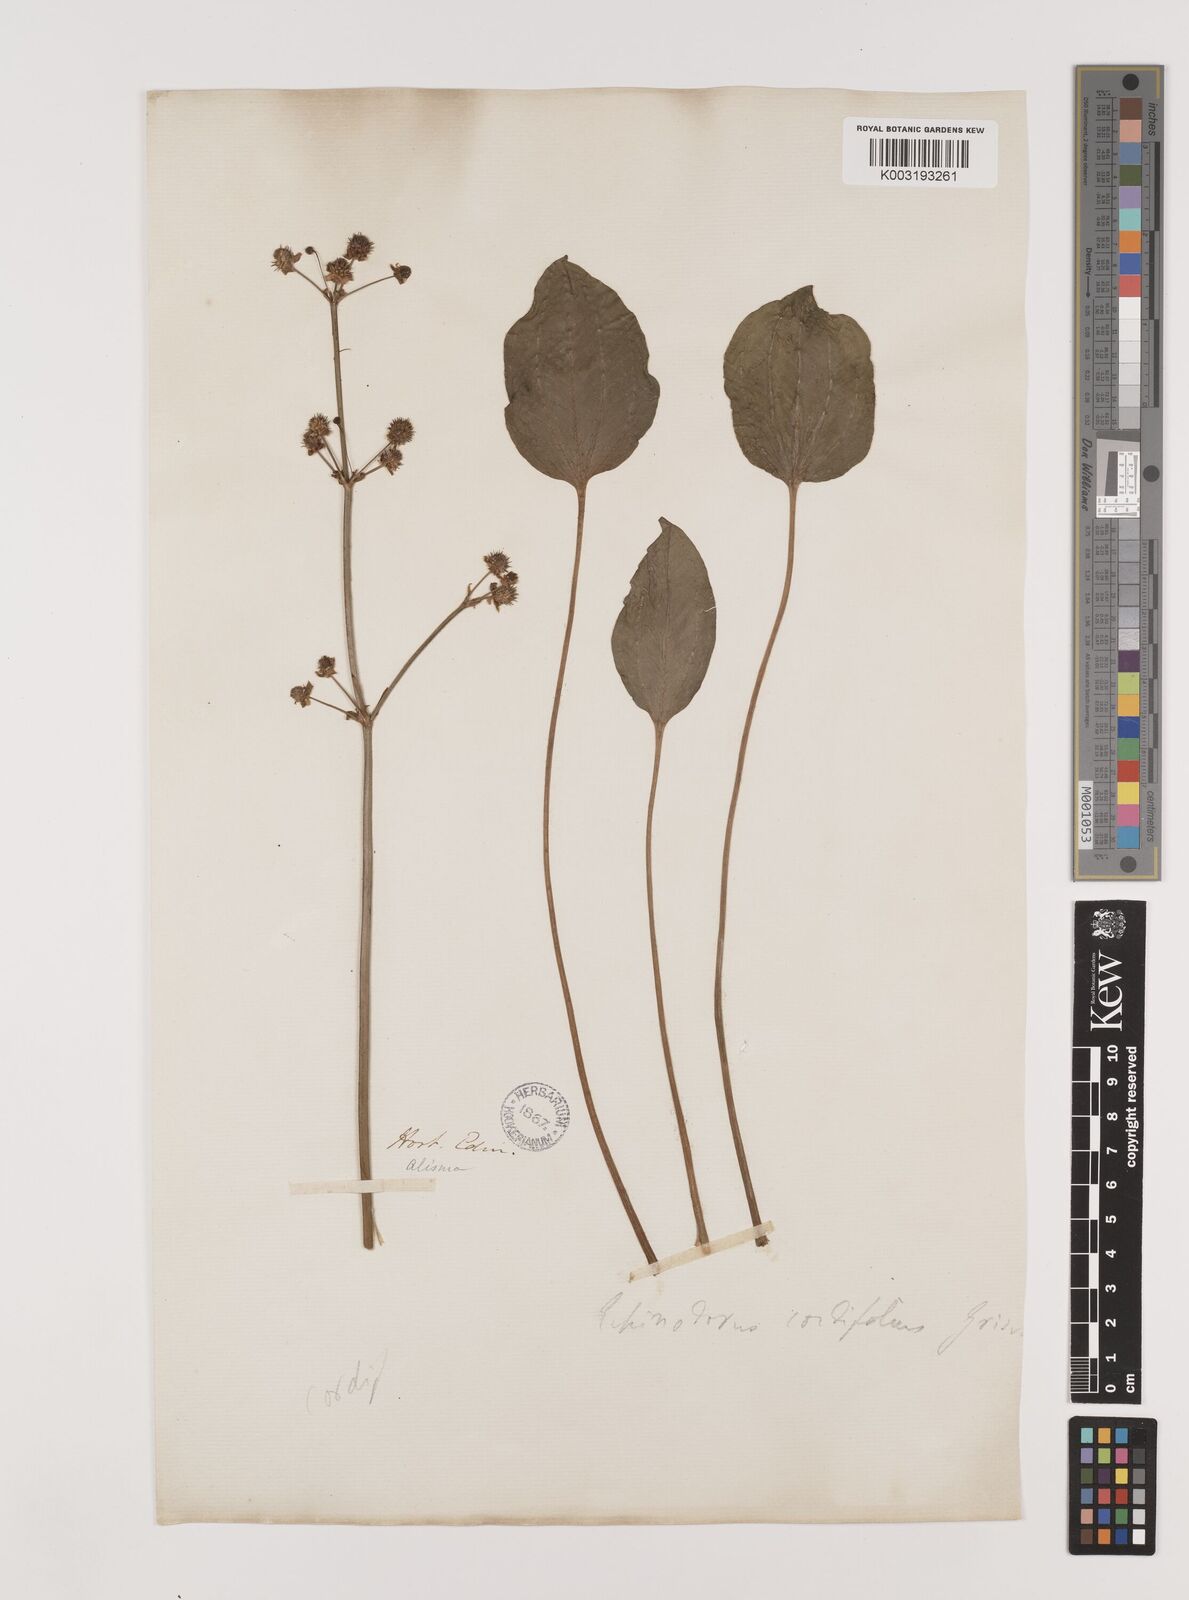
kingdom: Plantae
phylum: Tracheophyta
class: Liliopsida
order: Alismatales
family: Alismataceae
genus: Aquarius
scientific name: Aquarius cordifolius
